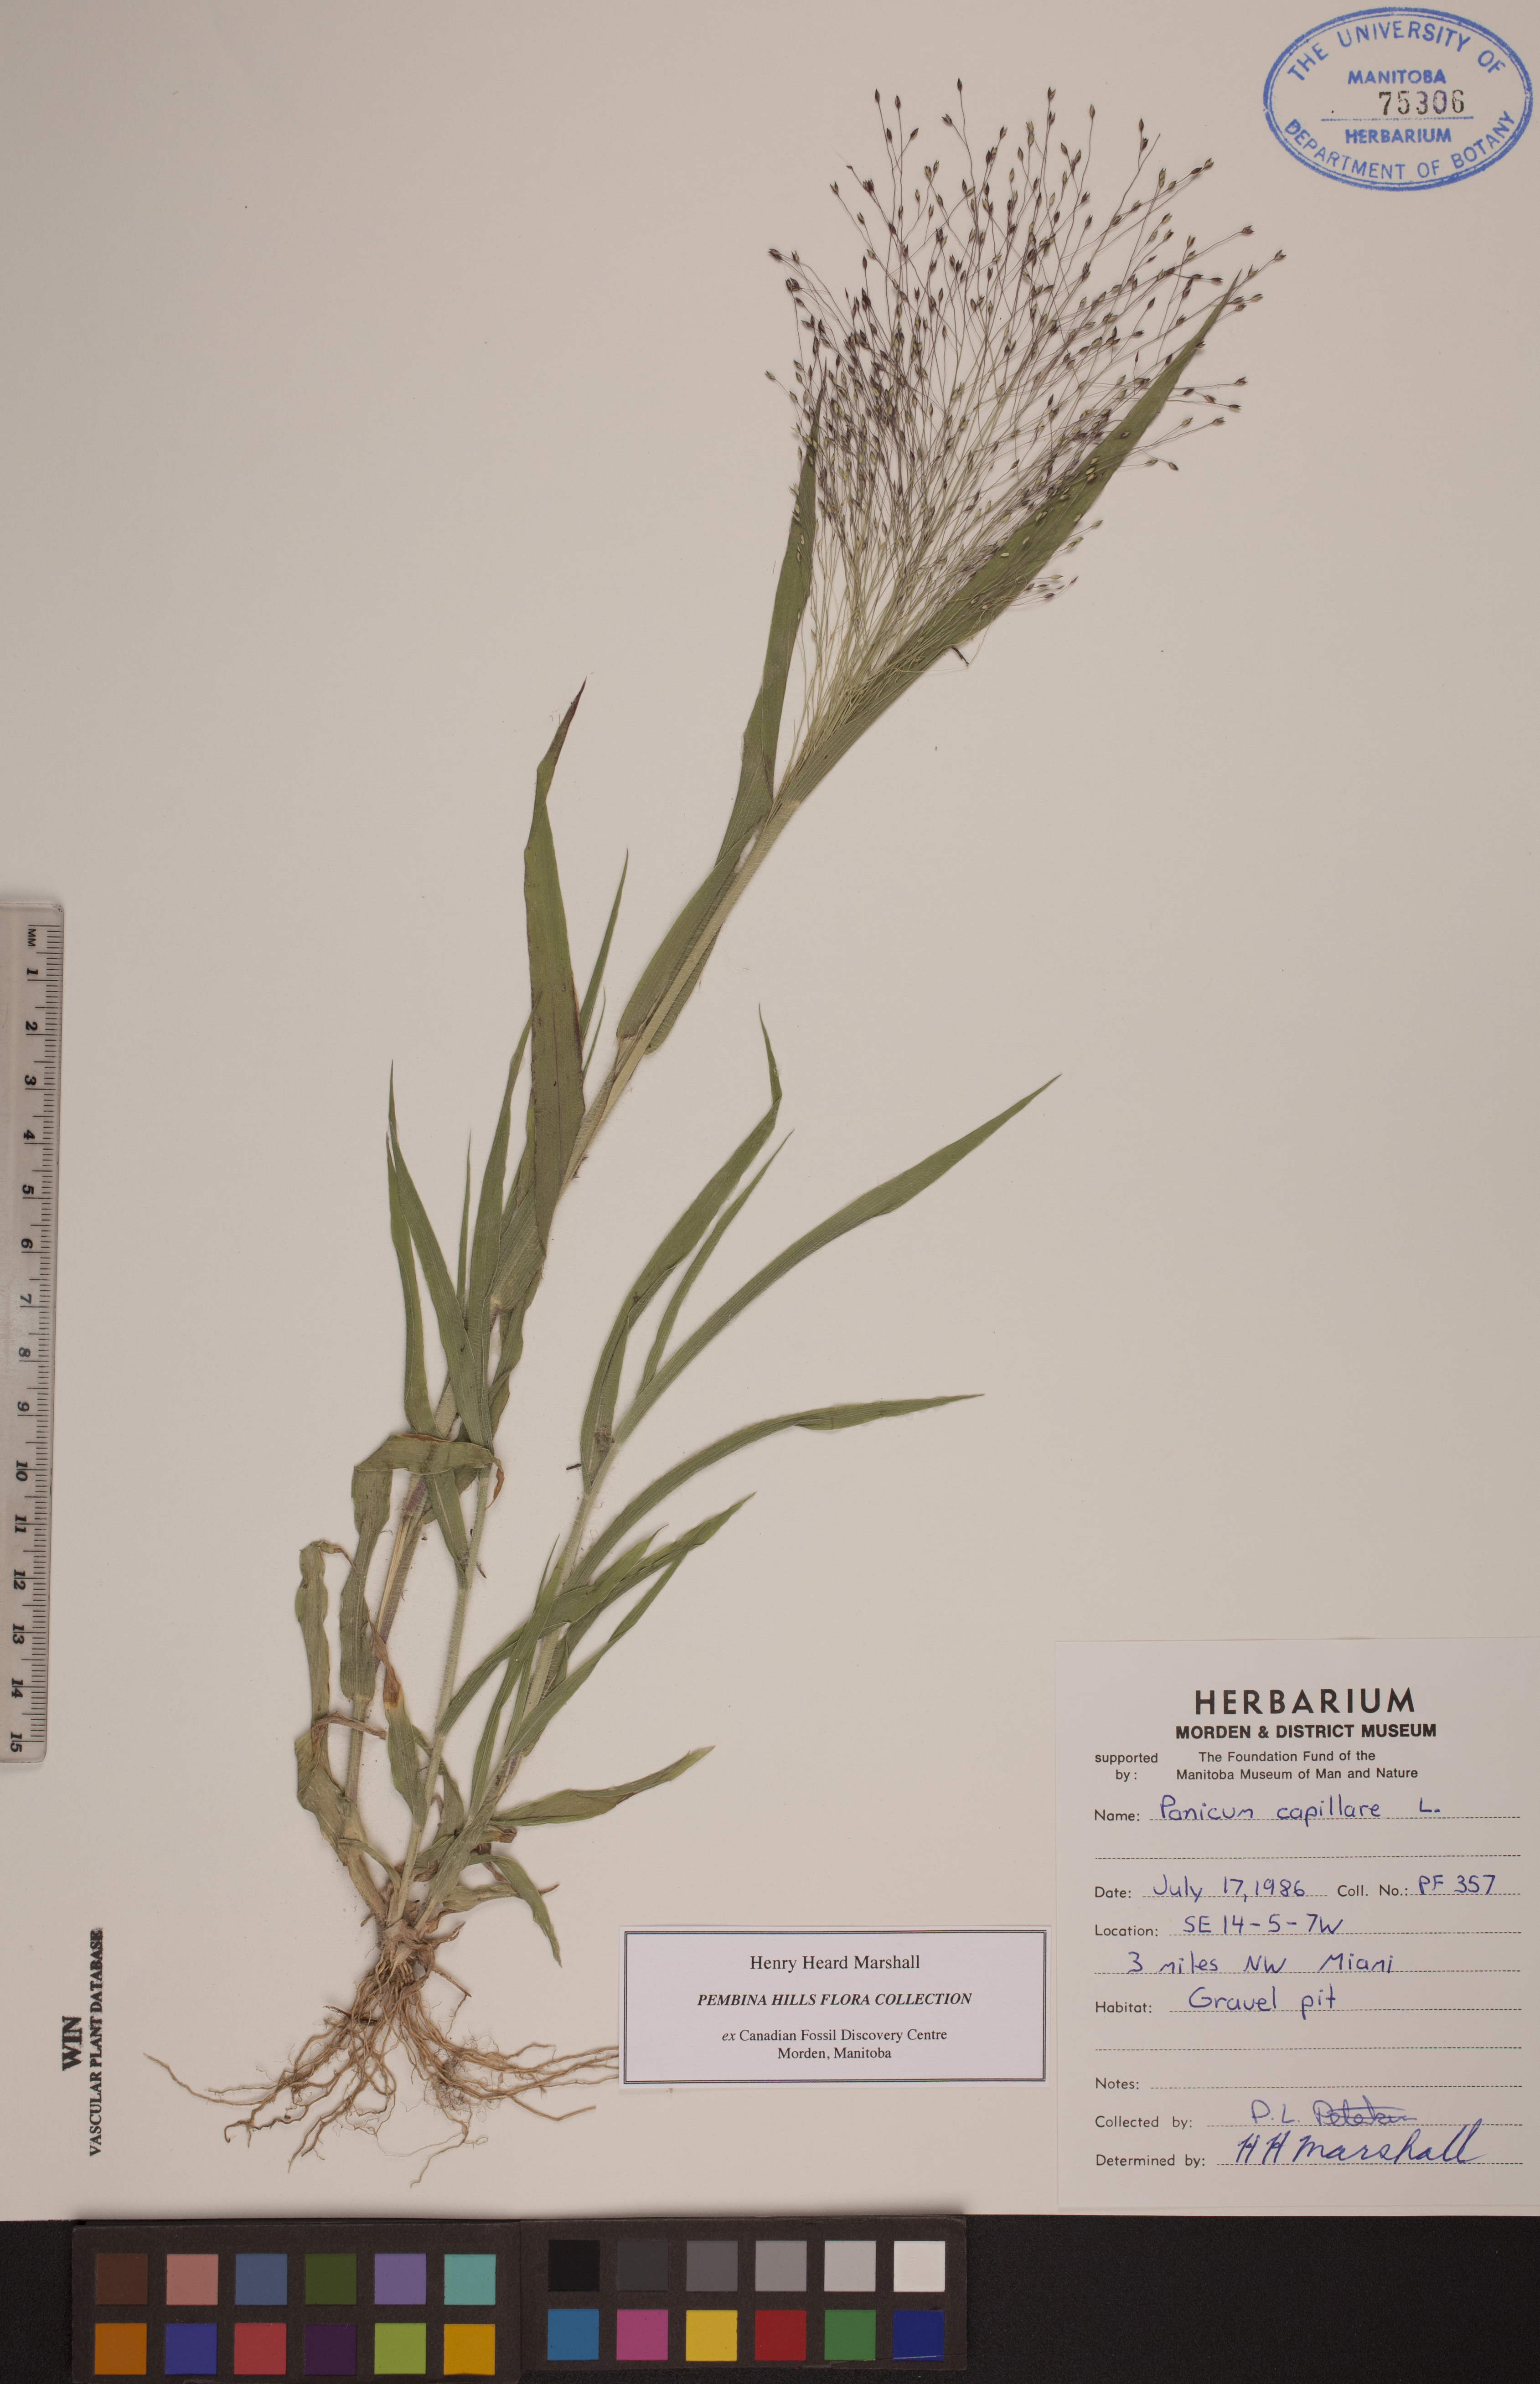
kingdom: Plantae
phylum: Tracheophyta
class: Liliopsida
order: Poales
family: Poaceae
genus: Panicum
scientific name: Panicum capillare
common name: Witch-grass
